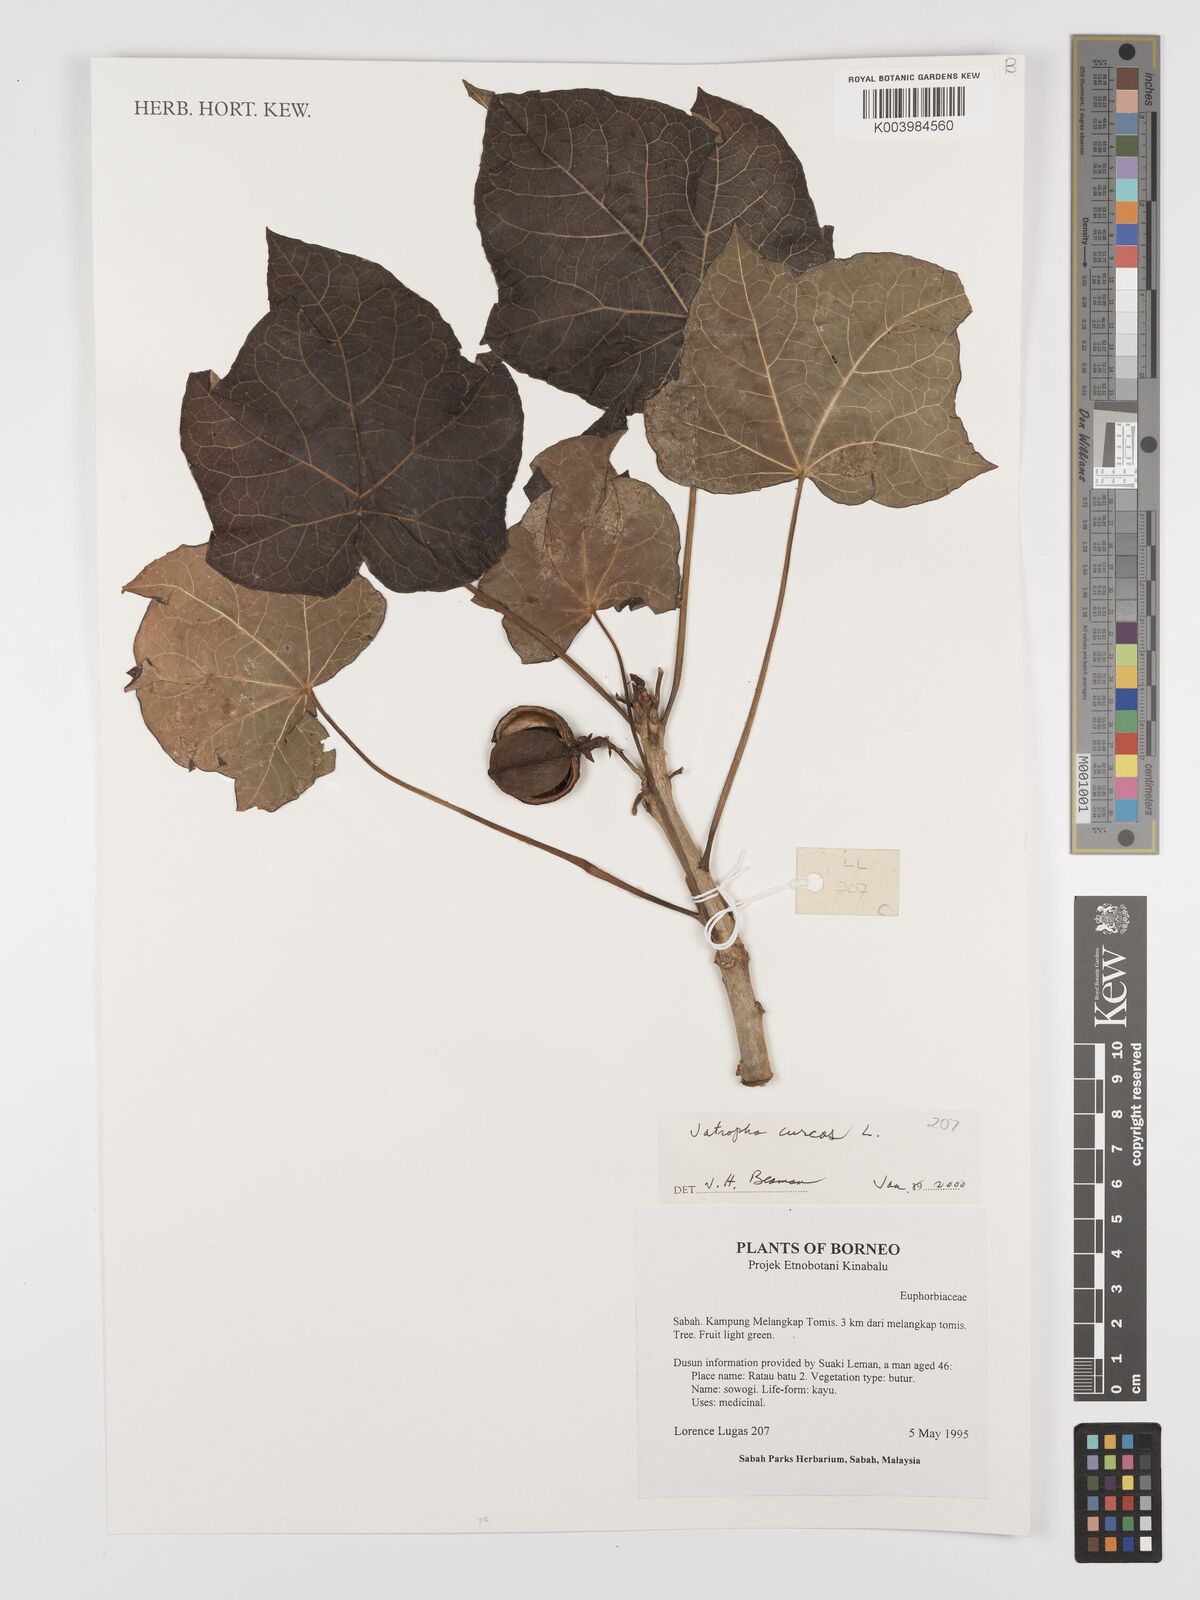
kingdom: Plantae
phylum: Tracheophyta
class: Magnoliopsida
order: Malpighiales
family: Euphorbiaceae
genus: Jatropha
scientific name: Jatropha curcas
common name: Barbados nut
